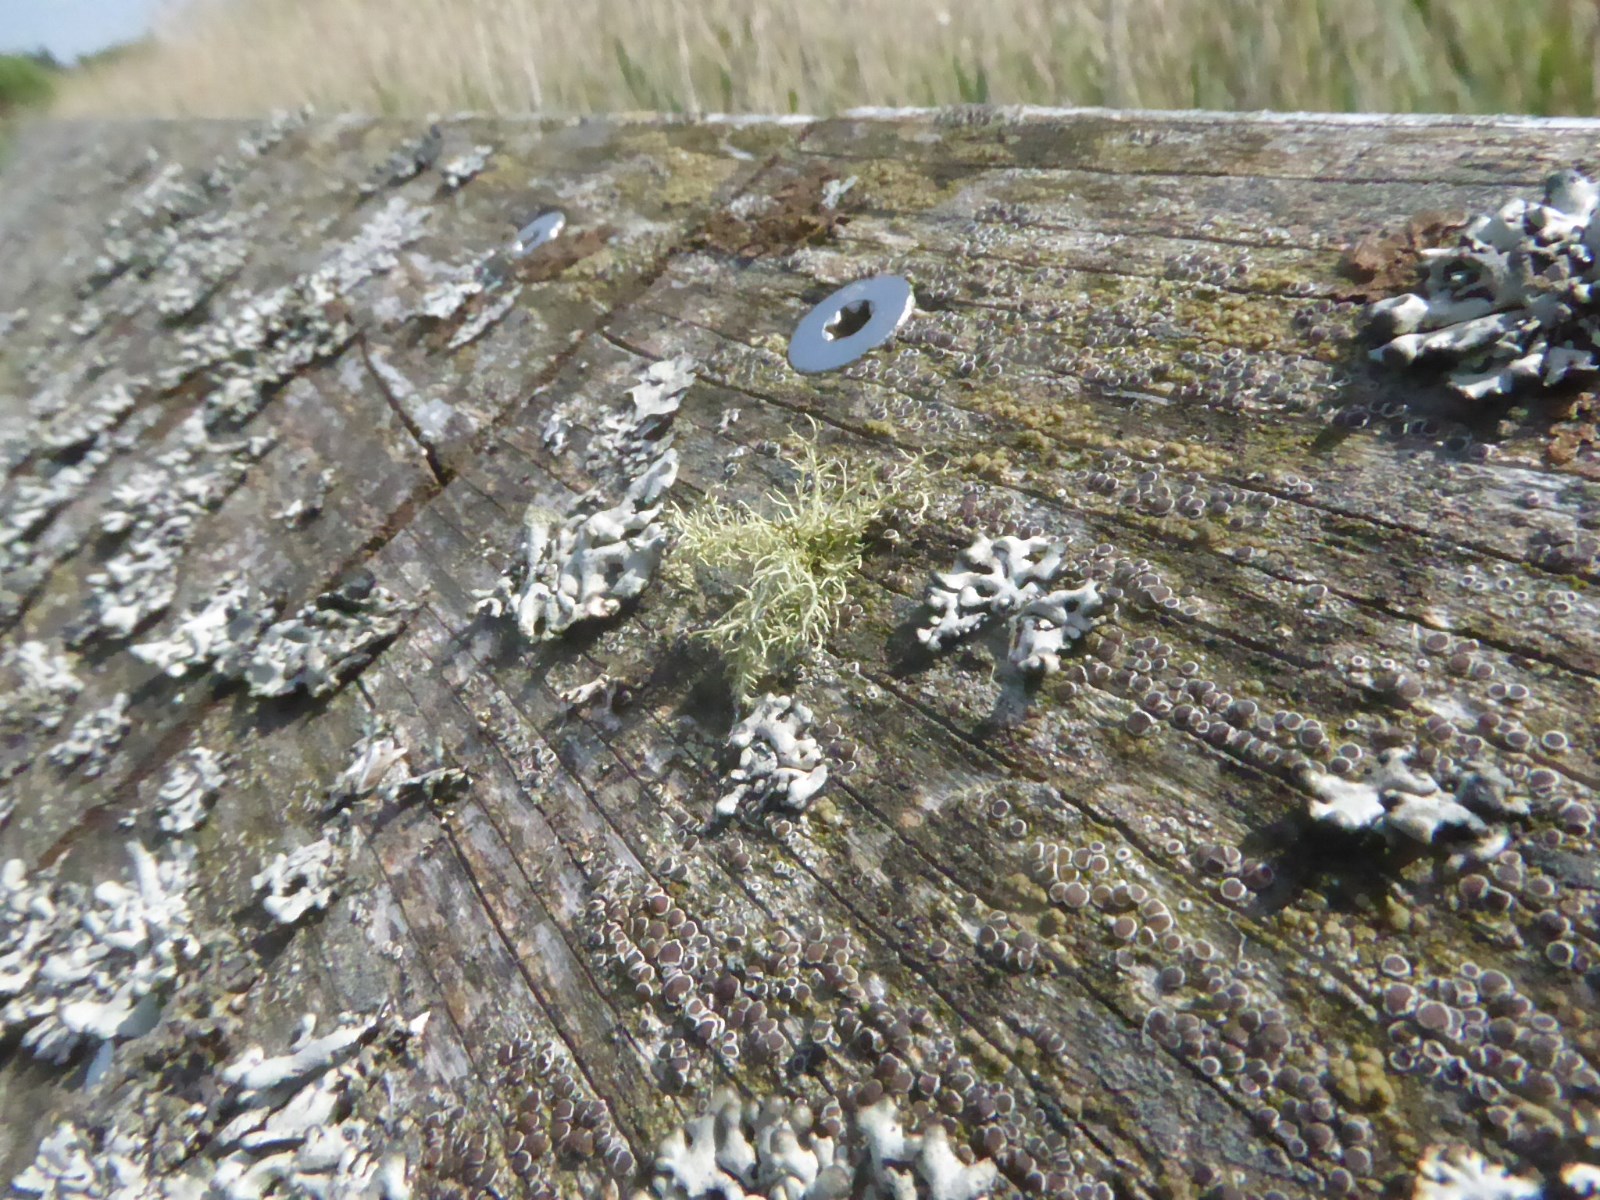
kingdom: Fungi
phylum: Ascomycota
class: Lecanoromycetes
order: Lecanorales
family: Parmeliaceae
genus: Usnea
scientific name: Usnea hirta
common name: liden skæglav
